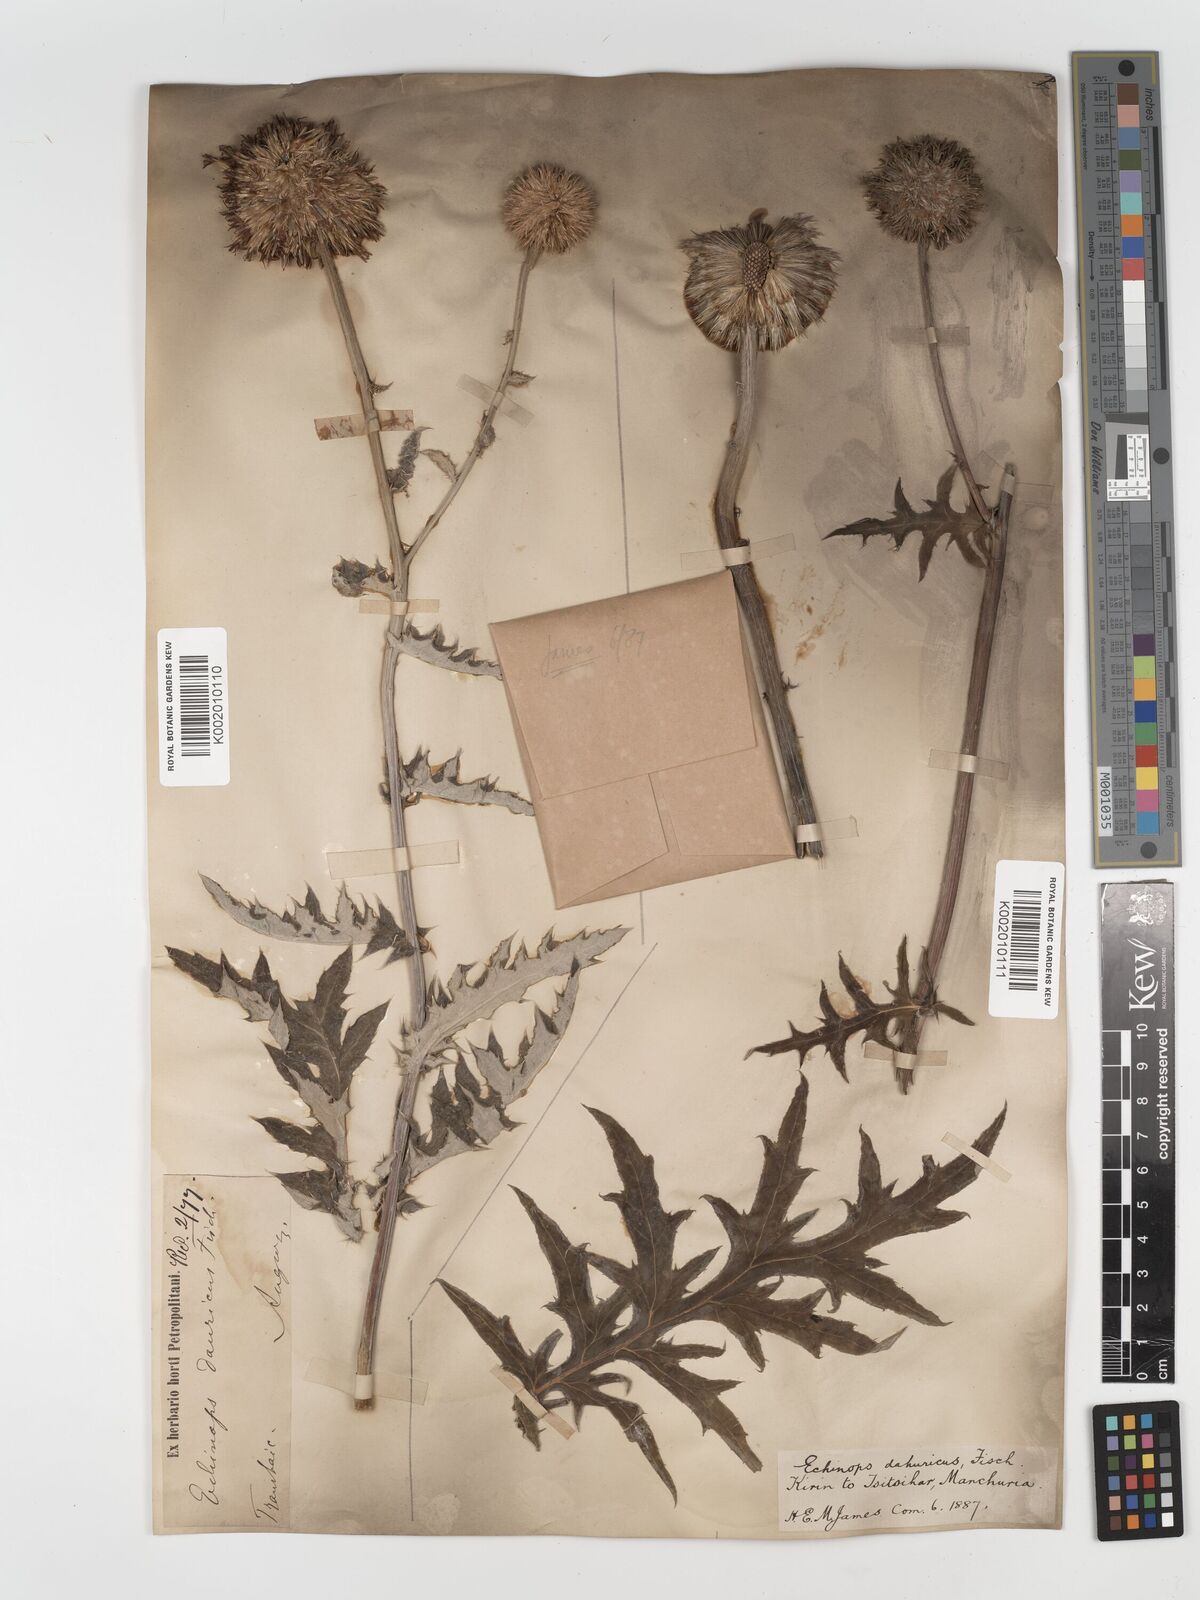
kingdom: Plantae
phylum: Tracheophyta
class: Magnoliopsida
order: Asterales
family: Asteraceae
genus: Echinops
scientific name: Echinops humilis
